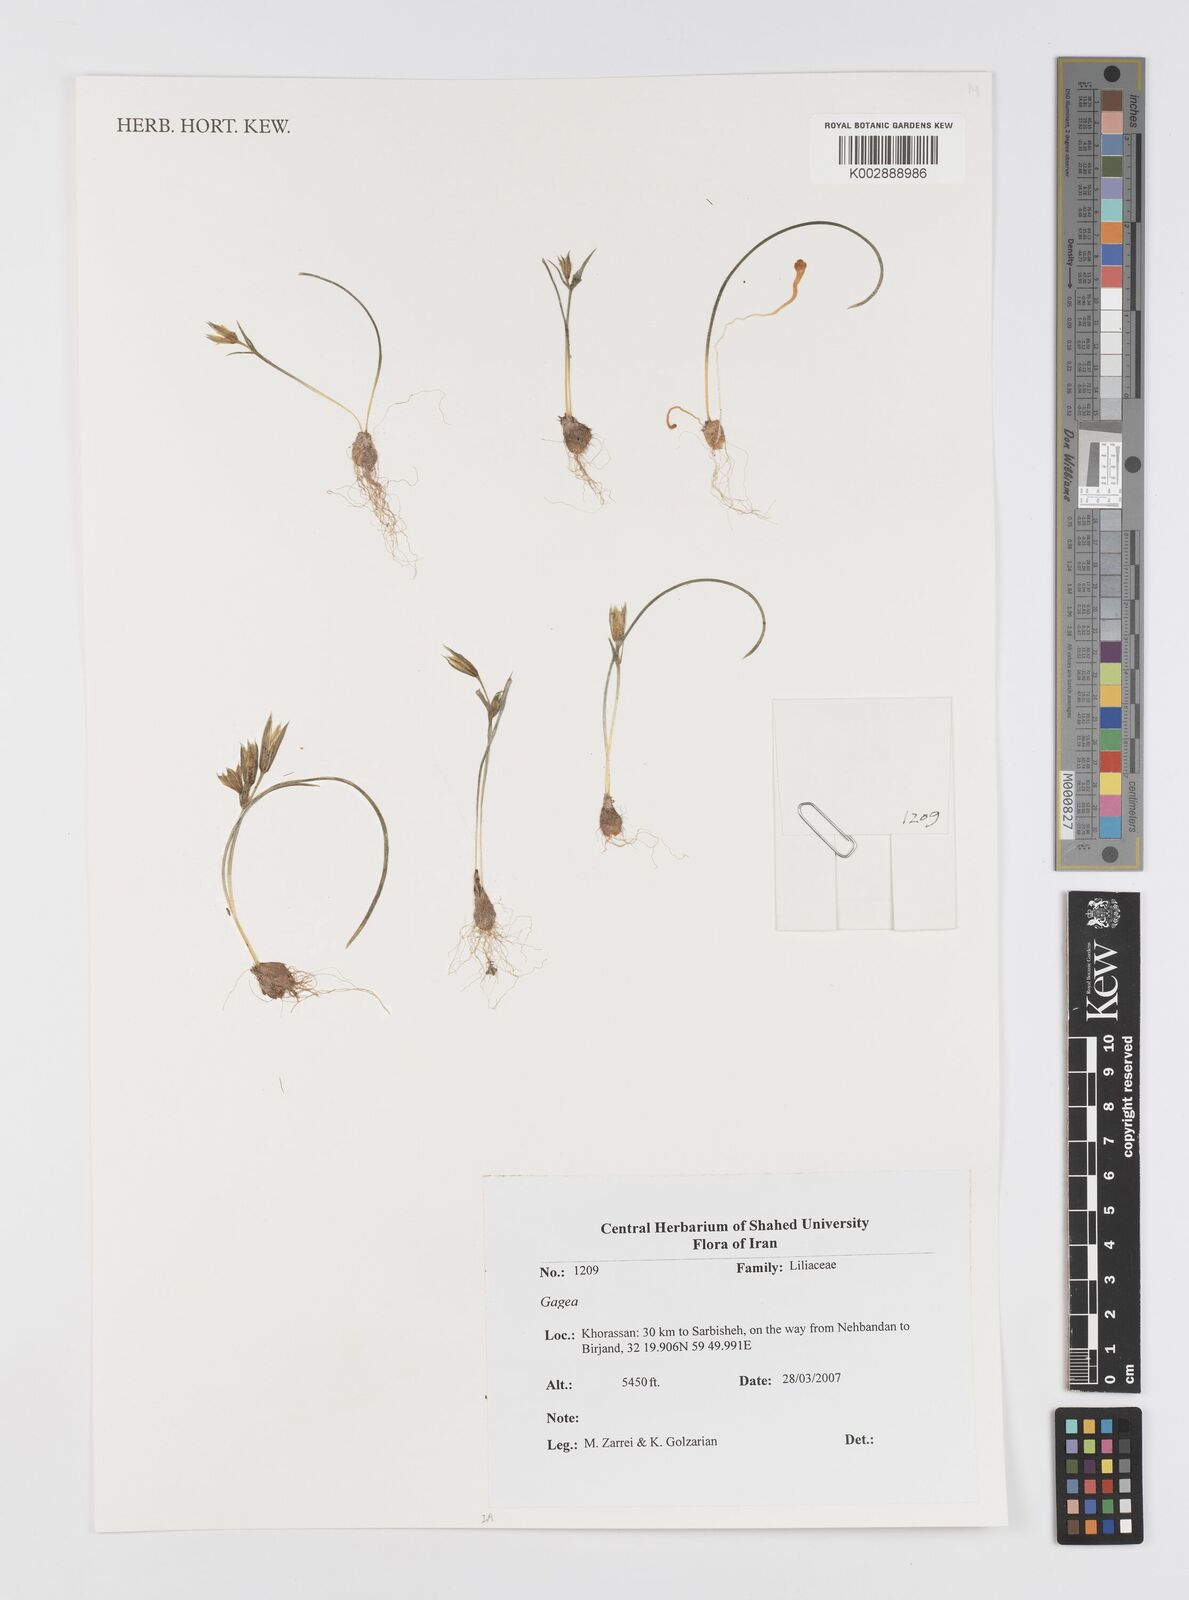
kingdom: Plantae
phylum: Tracheophyta
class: Liliopsida
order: Liliales
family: Liliaceae
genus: Gagea
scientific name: Gagea
